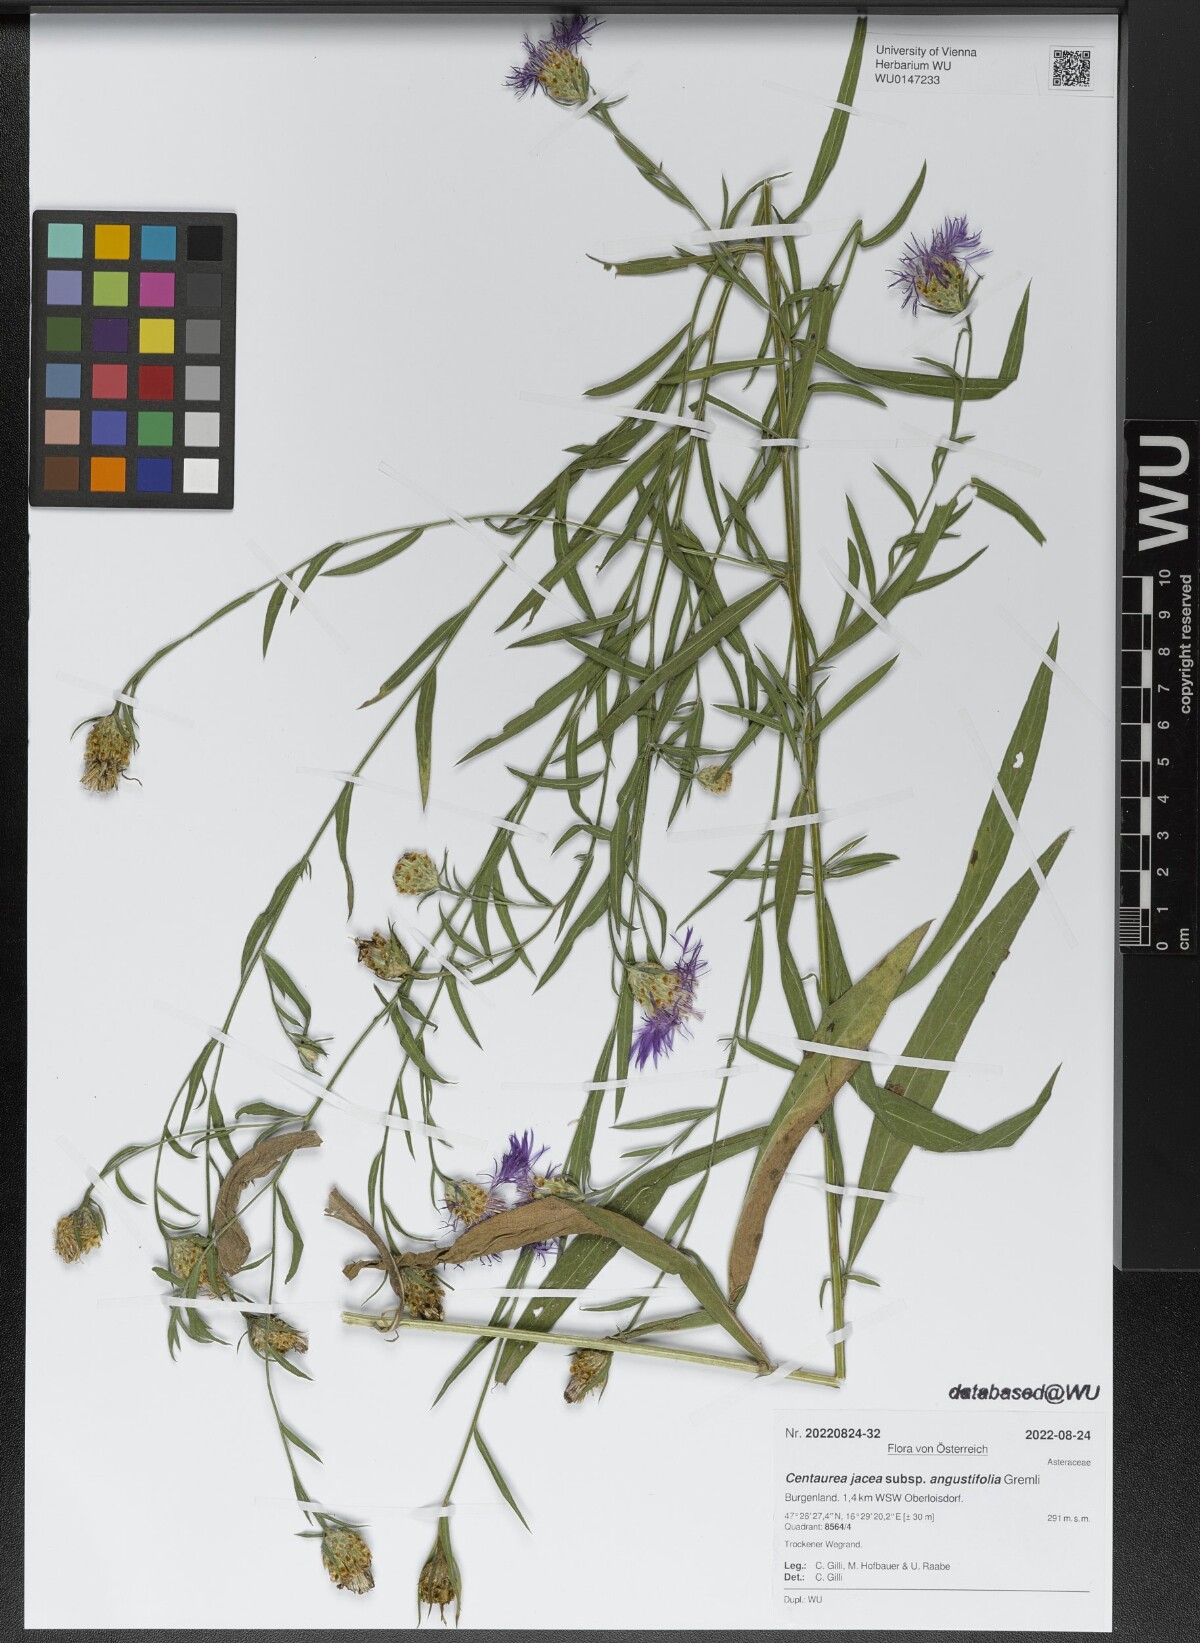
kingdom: Plantae
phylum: Tracheophyta
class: Magnoliopsida
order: Asterales
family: Asteraceae
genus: Centaurea
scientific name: Centaurea pannonica
